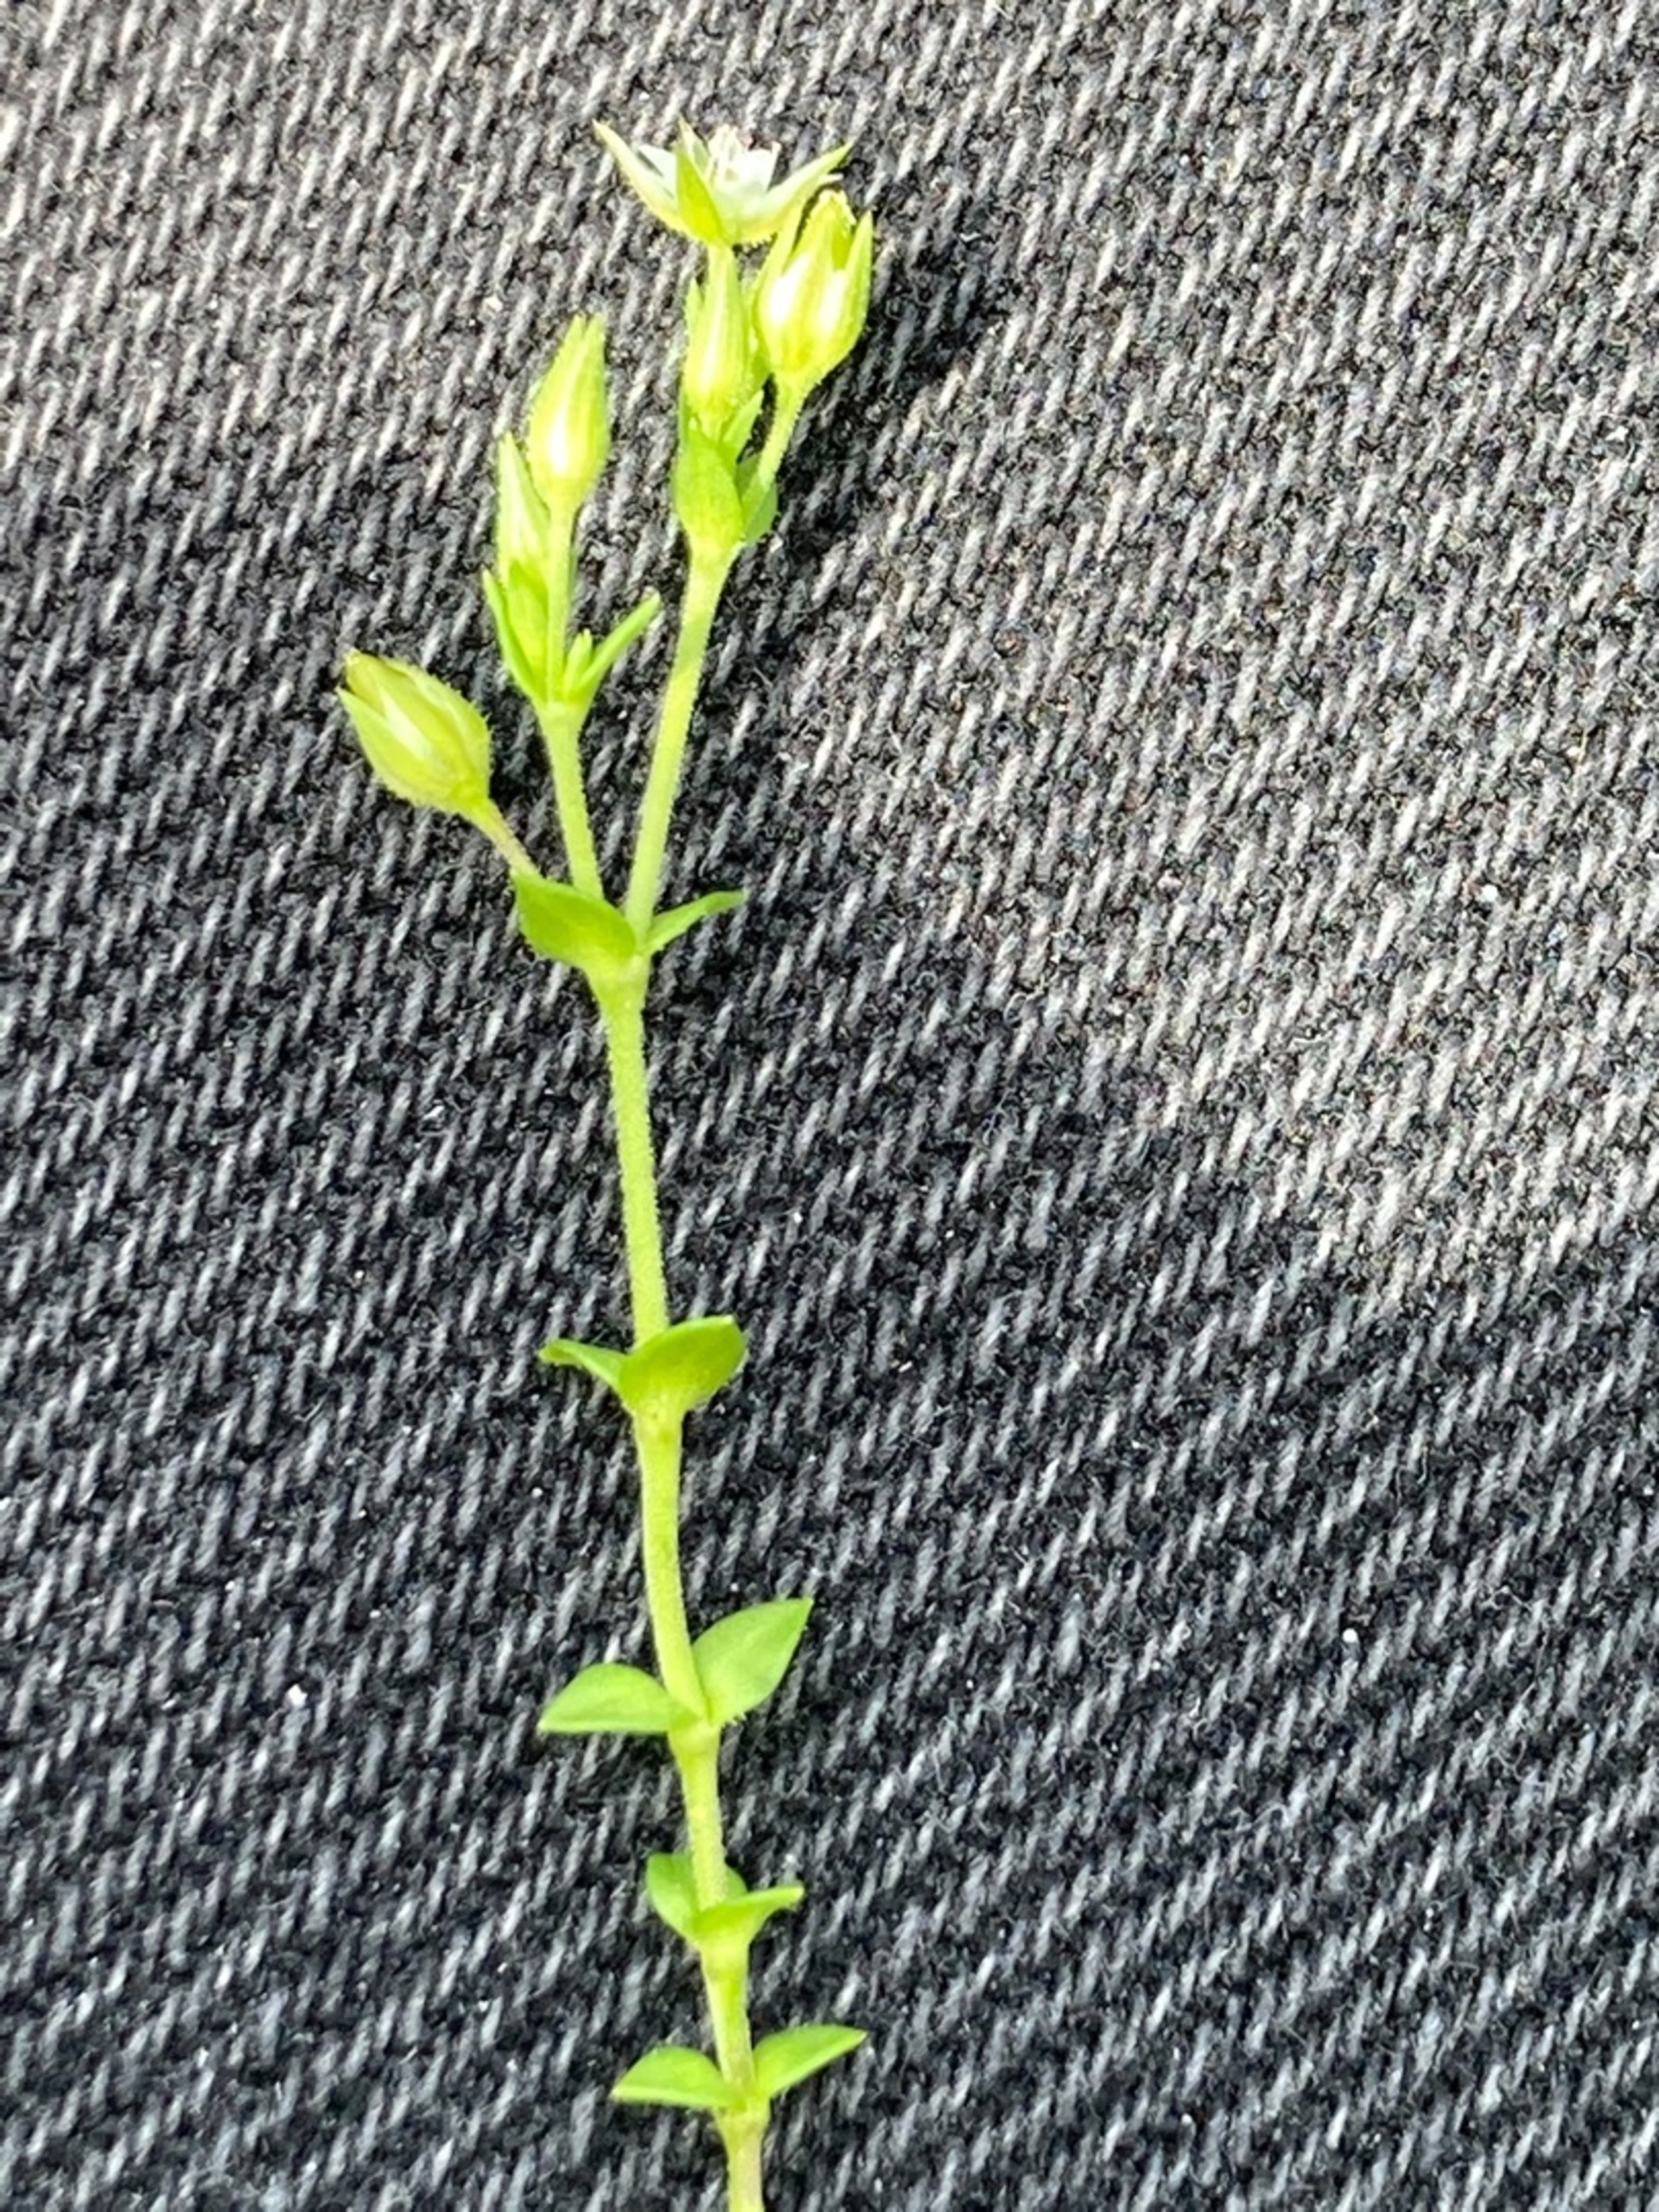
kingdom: Plantae
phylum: Tracheophyta
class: Magnoliopsida
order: Caryophyllales
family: Caryophyllaceae
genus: Arenaria
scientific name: Arenaria serpyllifolia
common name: Almindelig markarve
